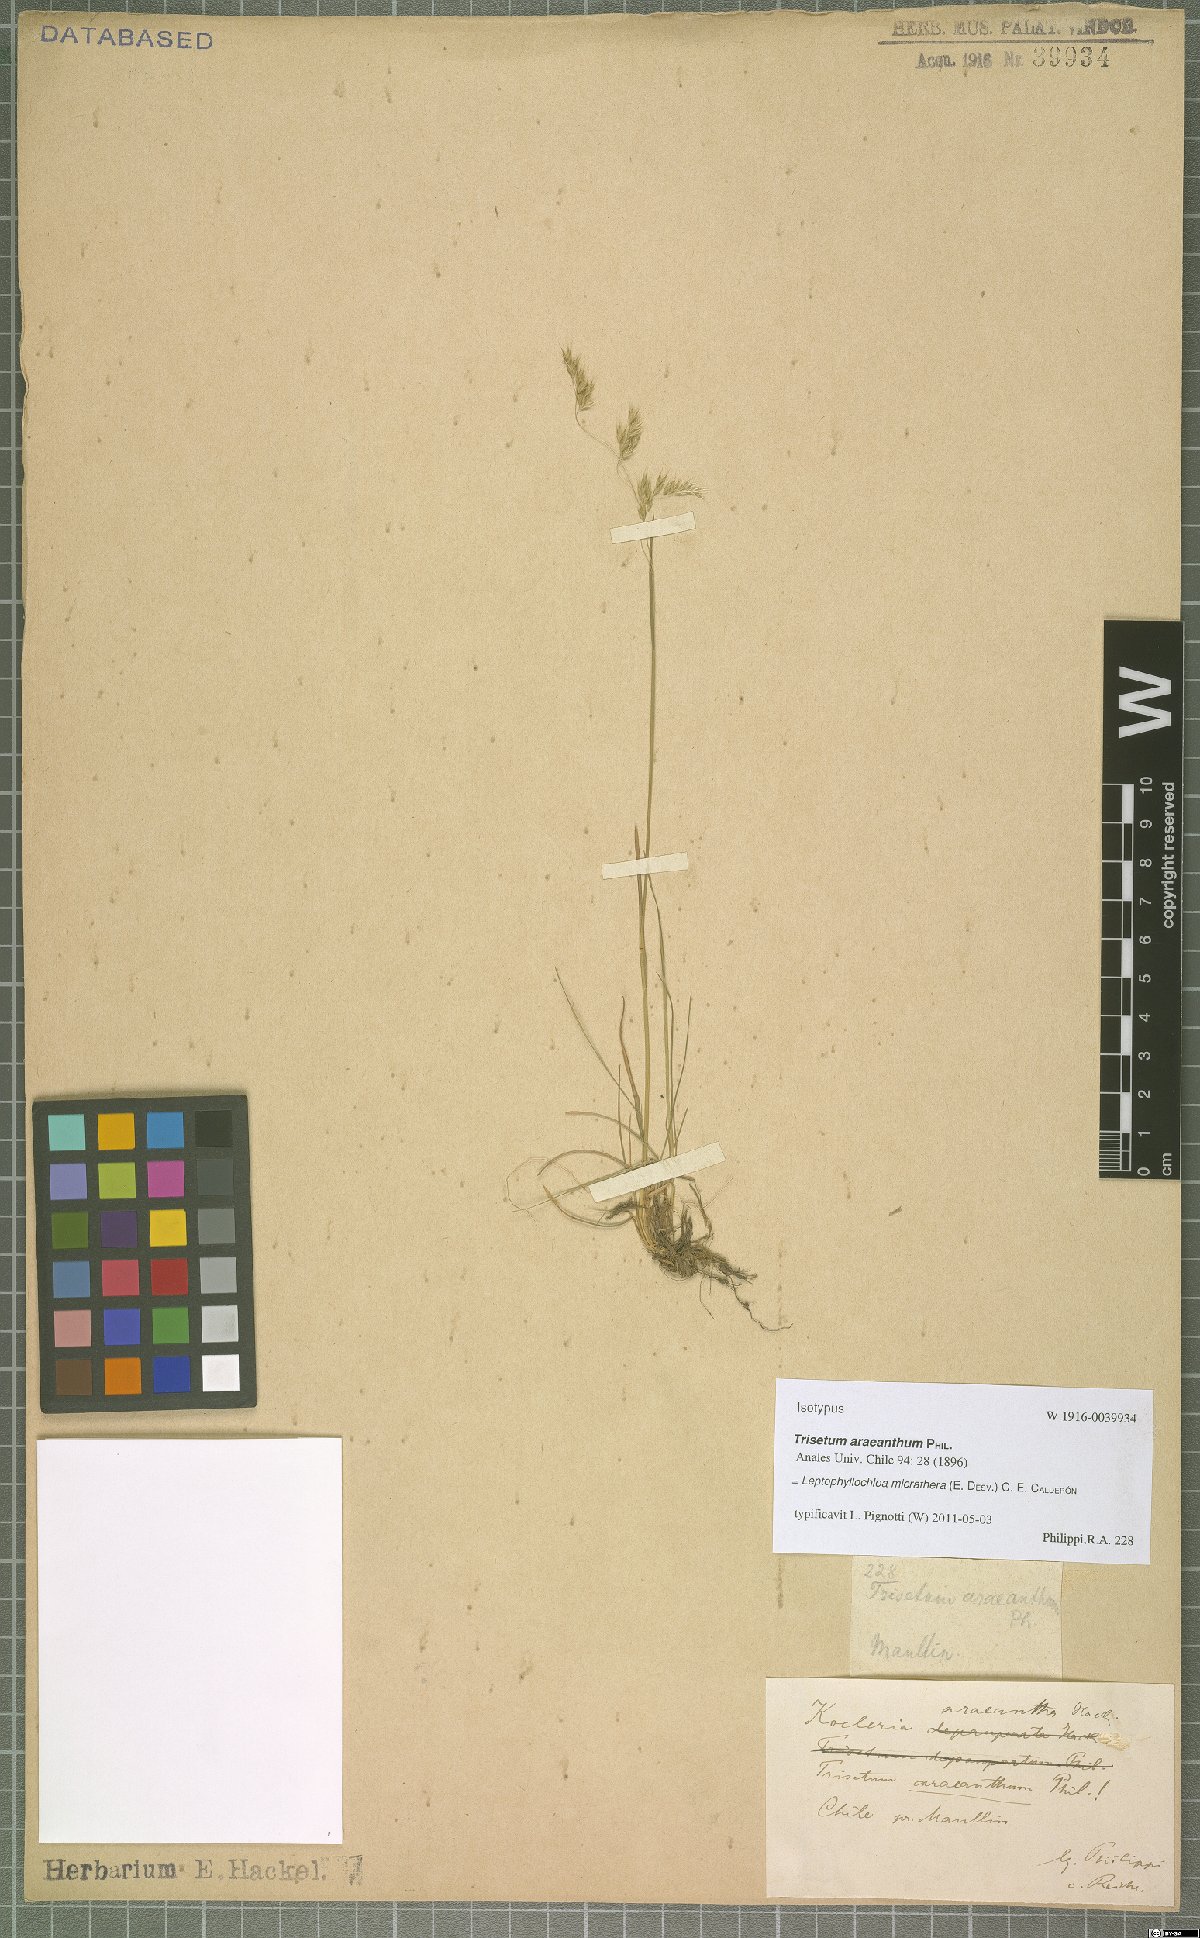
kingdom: Plantae
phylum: Tracheophyta
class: Liliopsida
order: Poales
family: Poaceae
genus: Cinnagrostis
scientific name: Cinnagrostis micrathera
